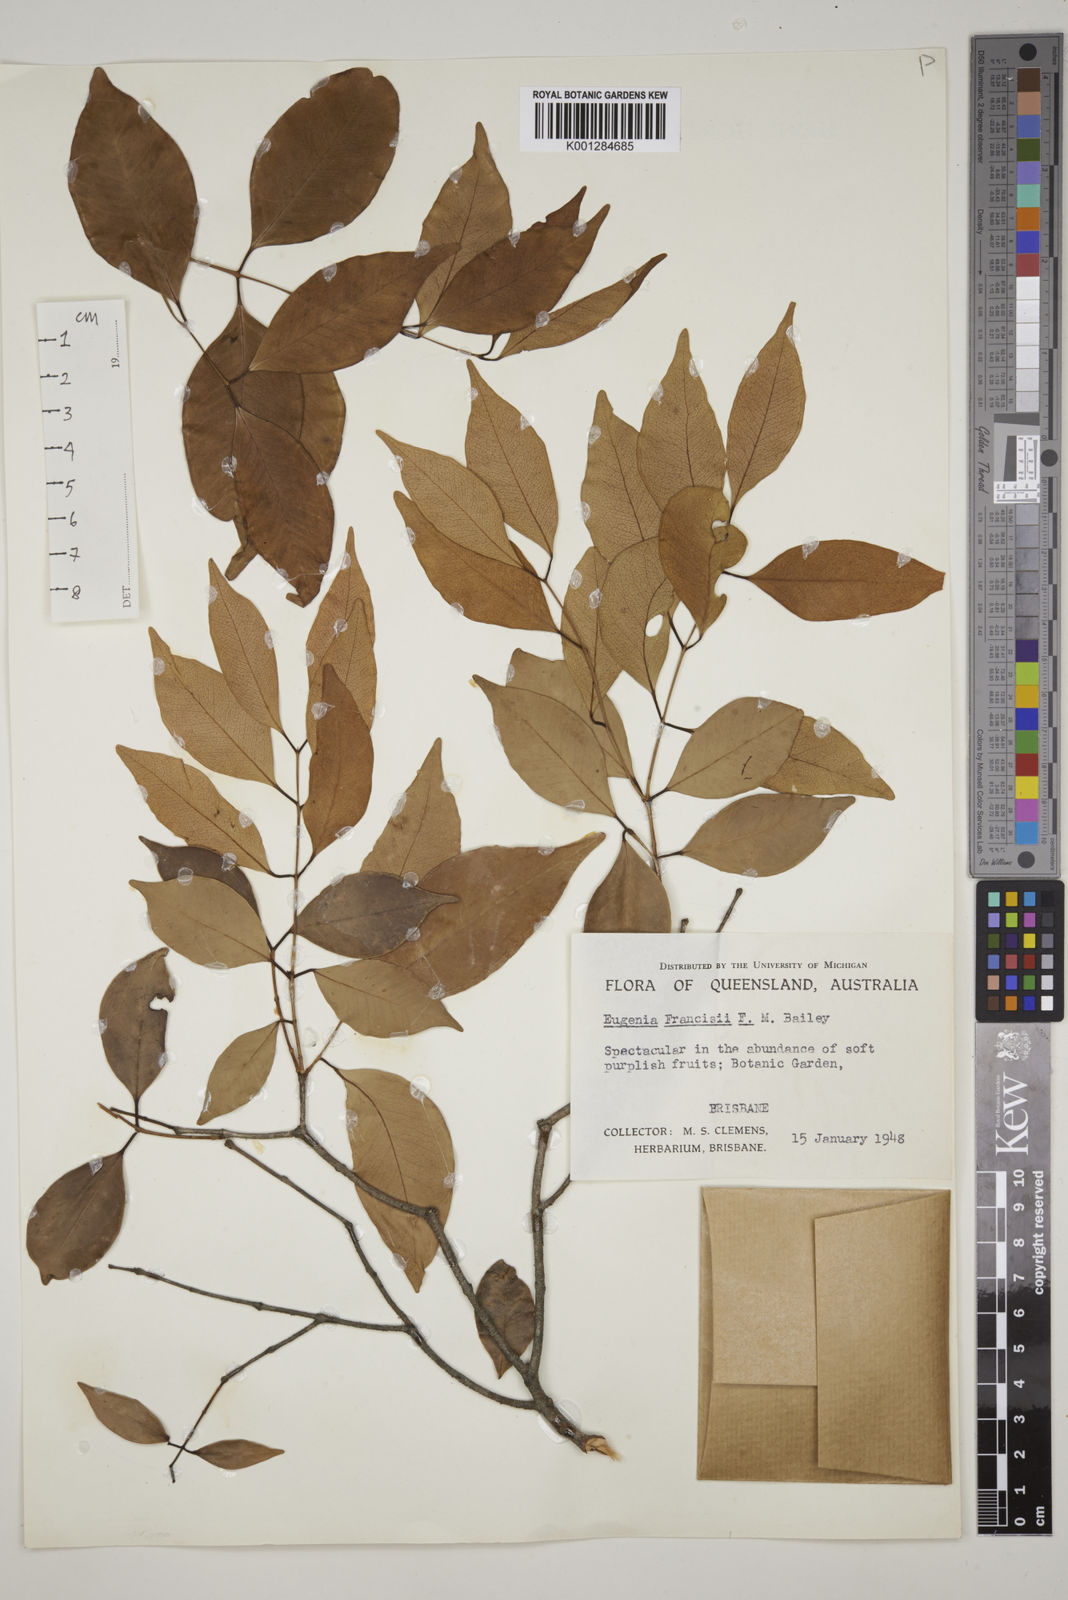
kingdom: Plantae
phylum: Tracheophyta
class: Magnoliopsida
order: Myrtales
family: Myrtaceae
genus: Syzygium
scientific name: Syzygium francisii
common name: Giant water-gum
